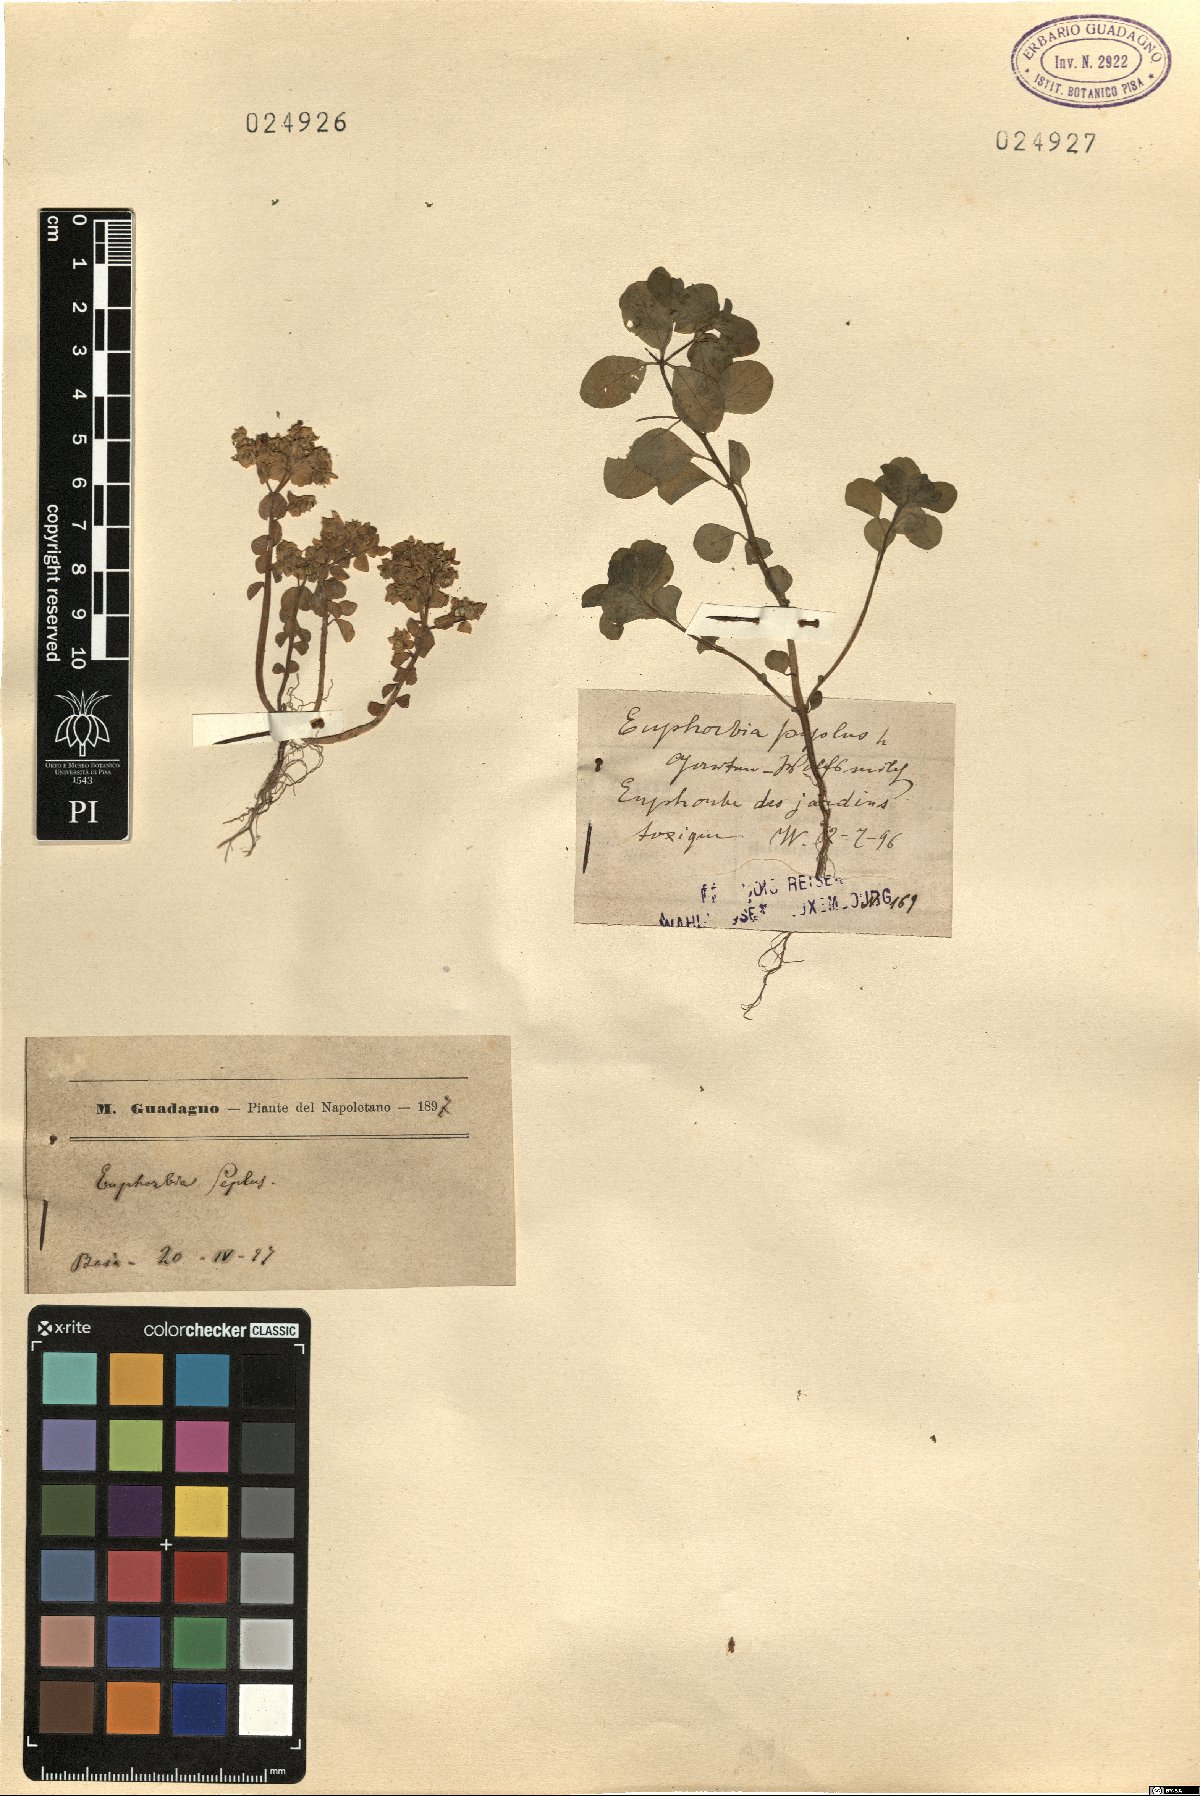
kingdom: Plantae
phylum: Tracheophyta
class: Magnoliopsida
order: Malpighiales
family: Euphorbiaceae
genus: Euphorbia
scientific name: Euphorbia peplus
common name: Petty spurge
